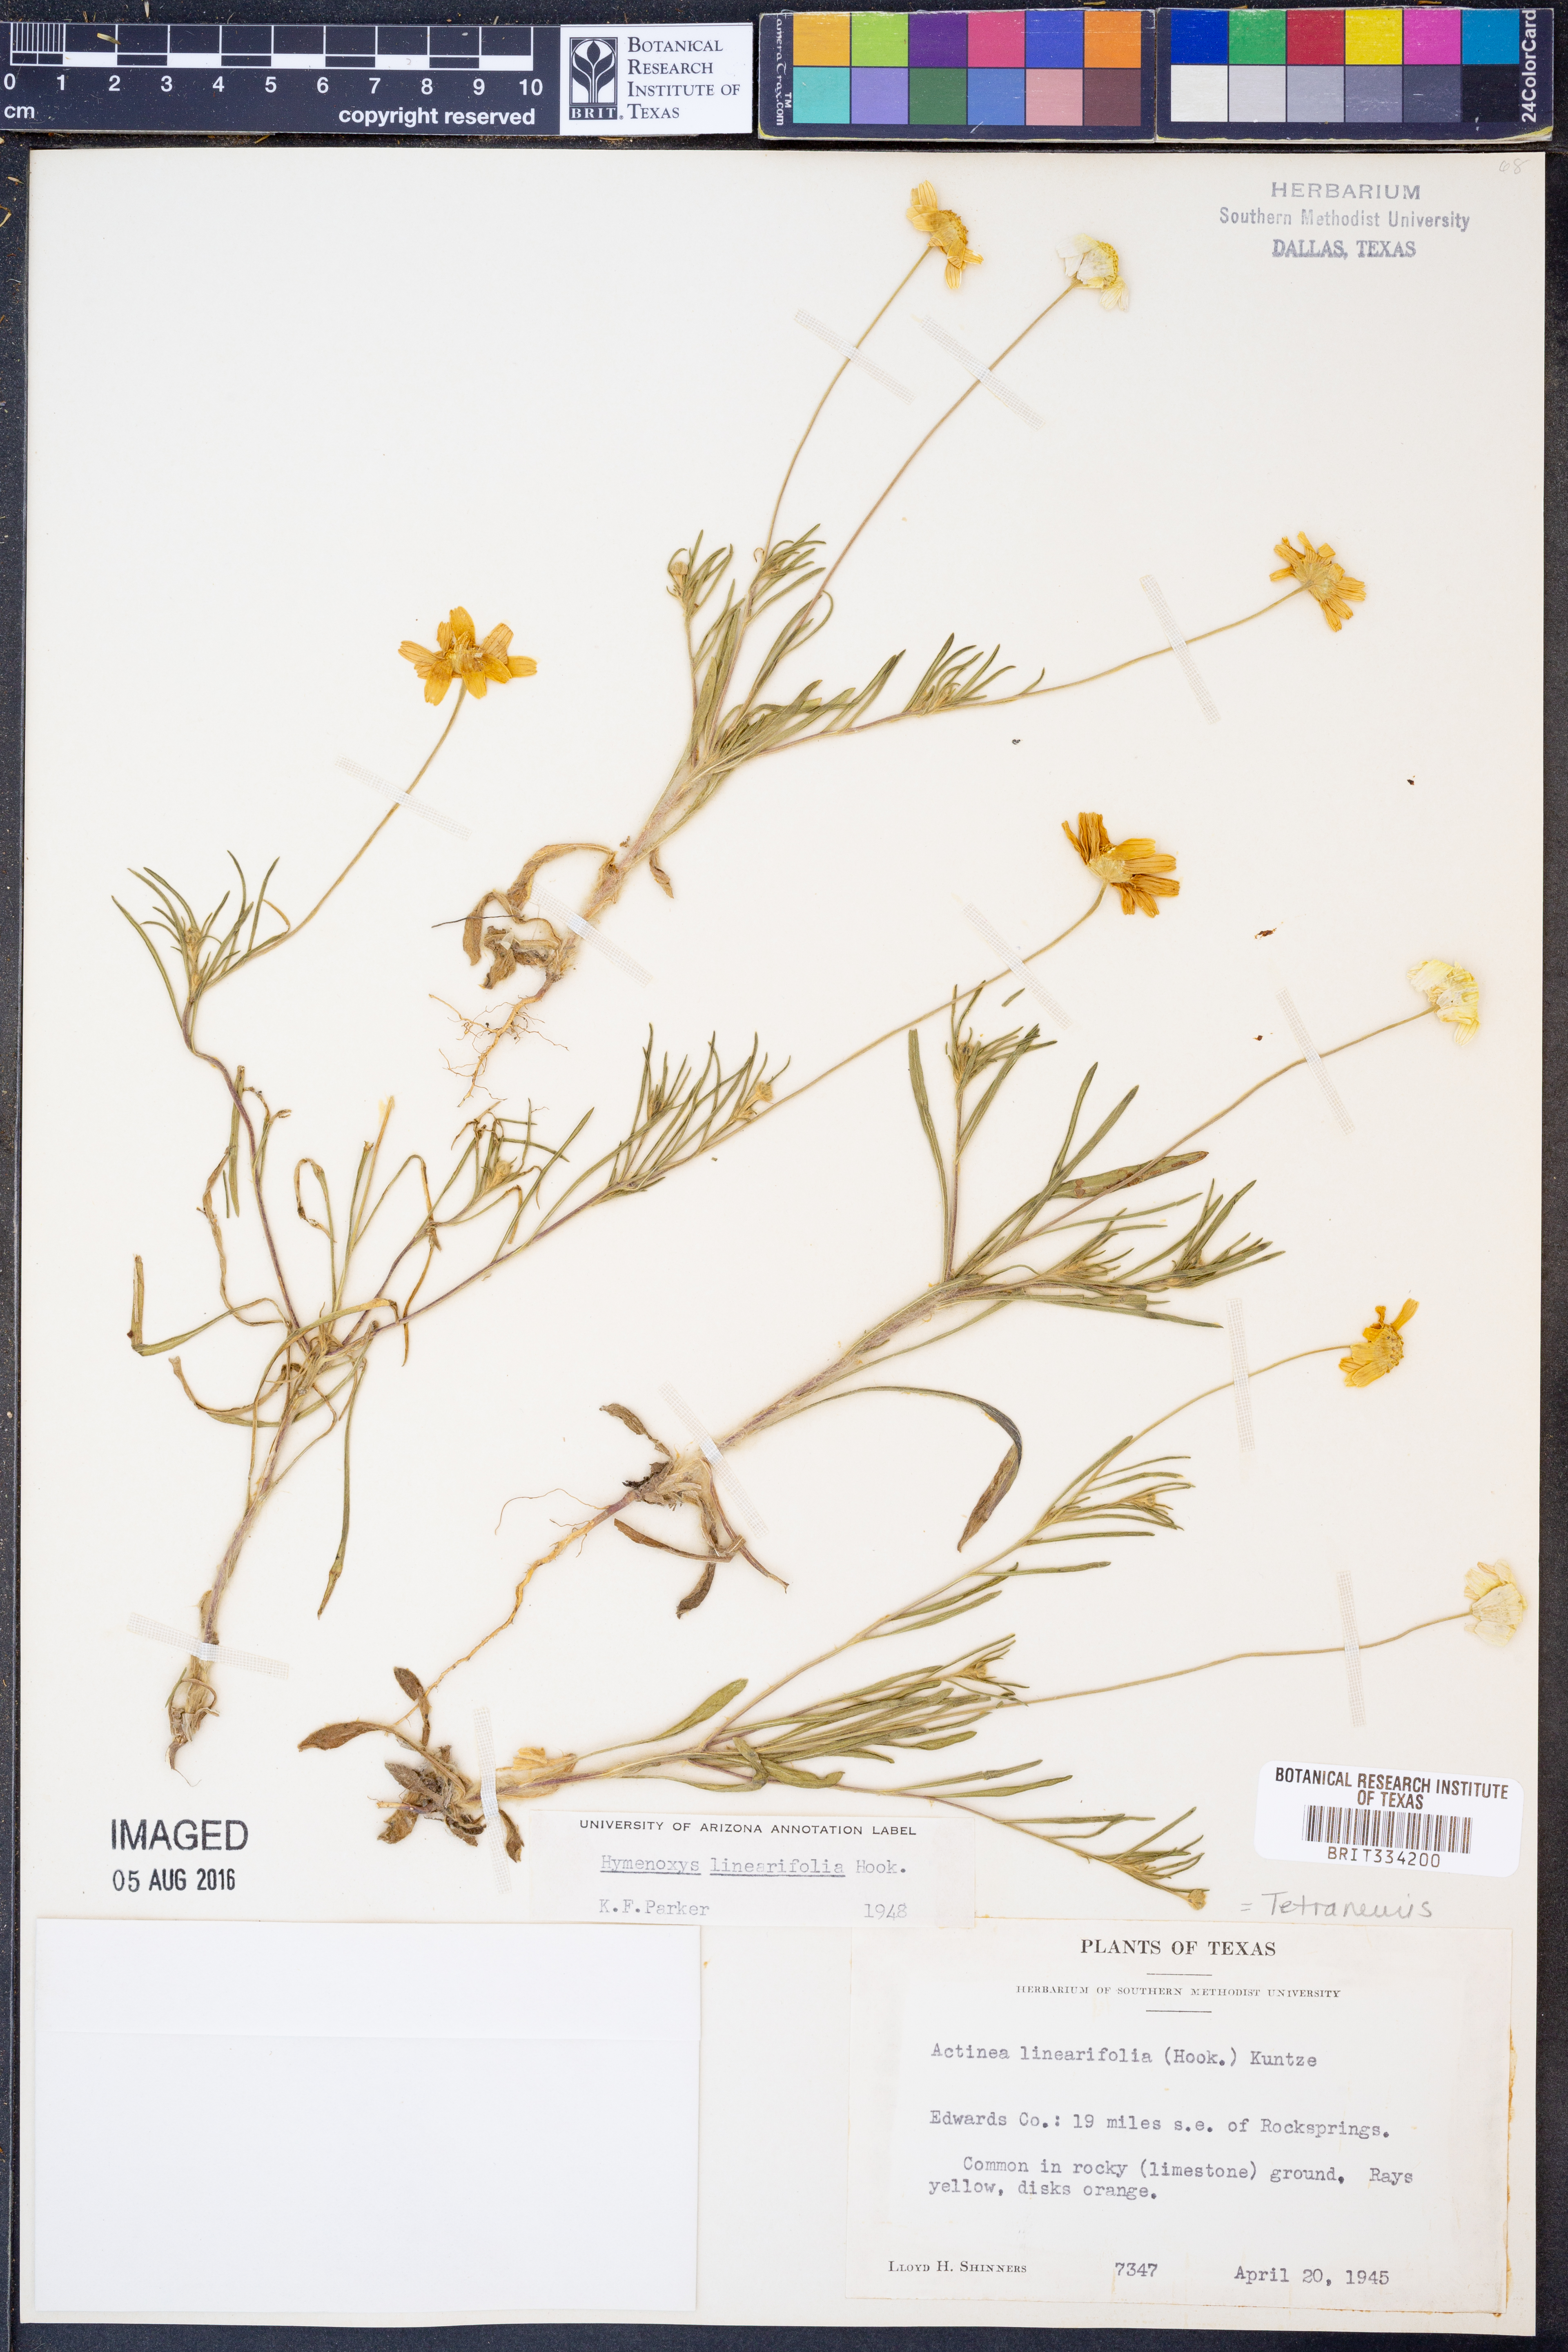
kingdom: Plantae
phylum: Tracheophyta
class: Magnoliopsida
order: Asterales
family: Asteraceae
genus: Tetraneuris
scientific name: Tetraneuris linearifolia
